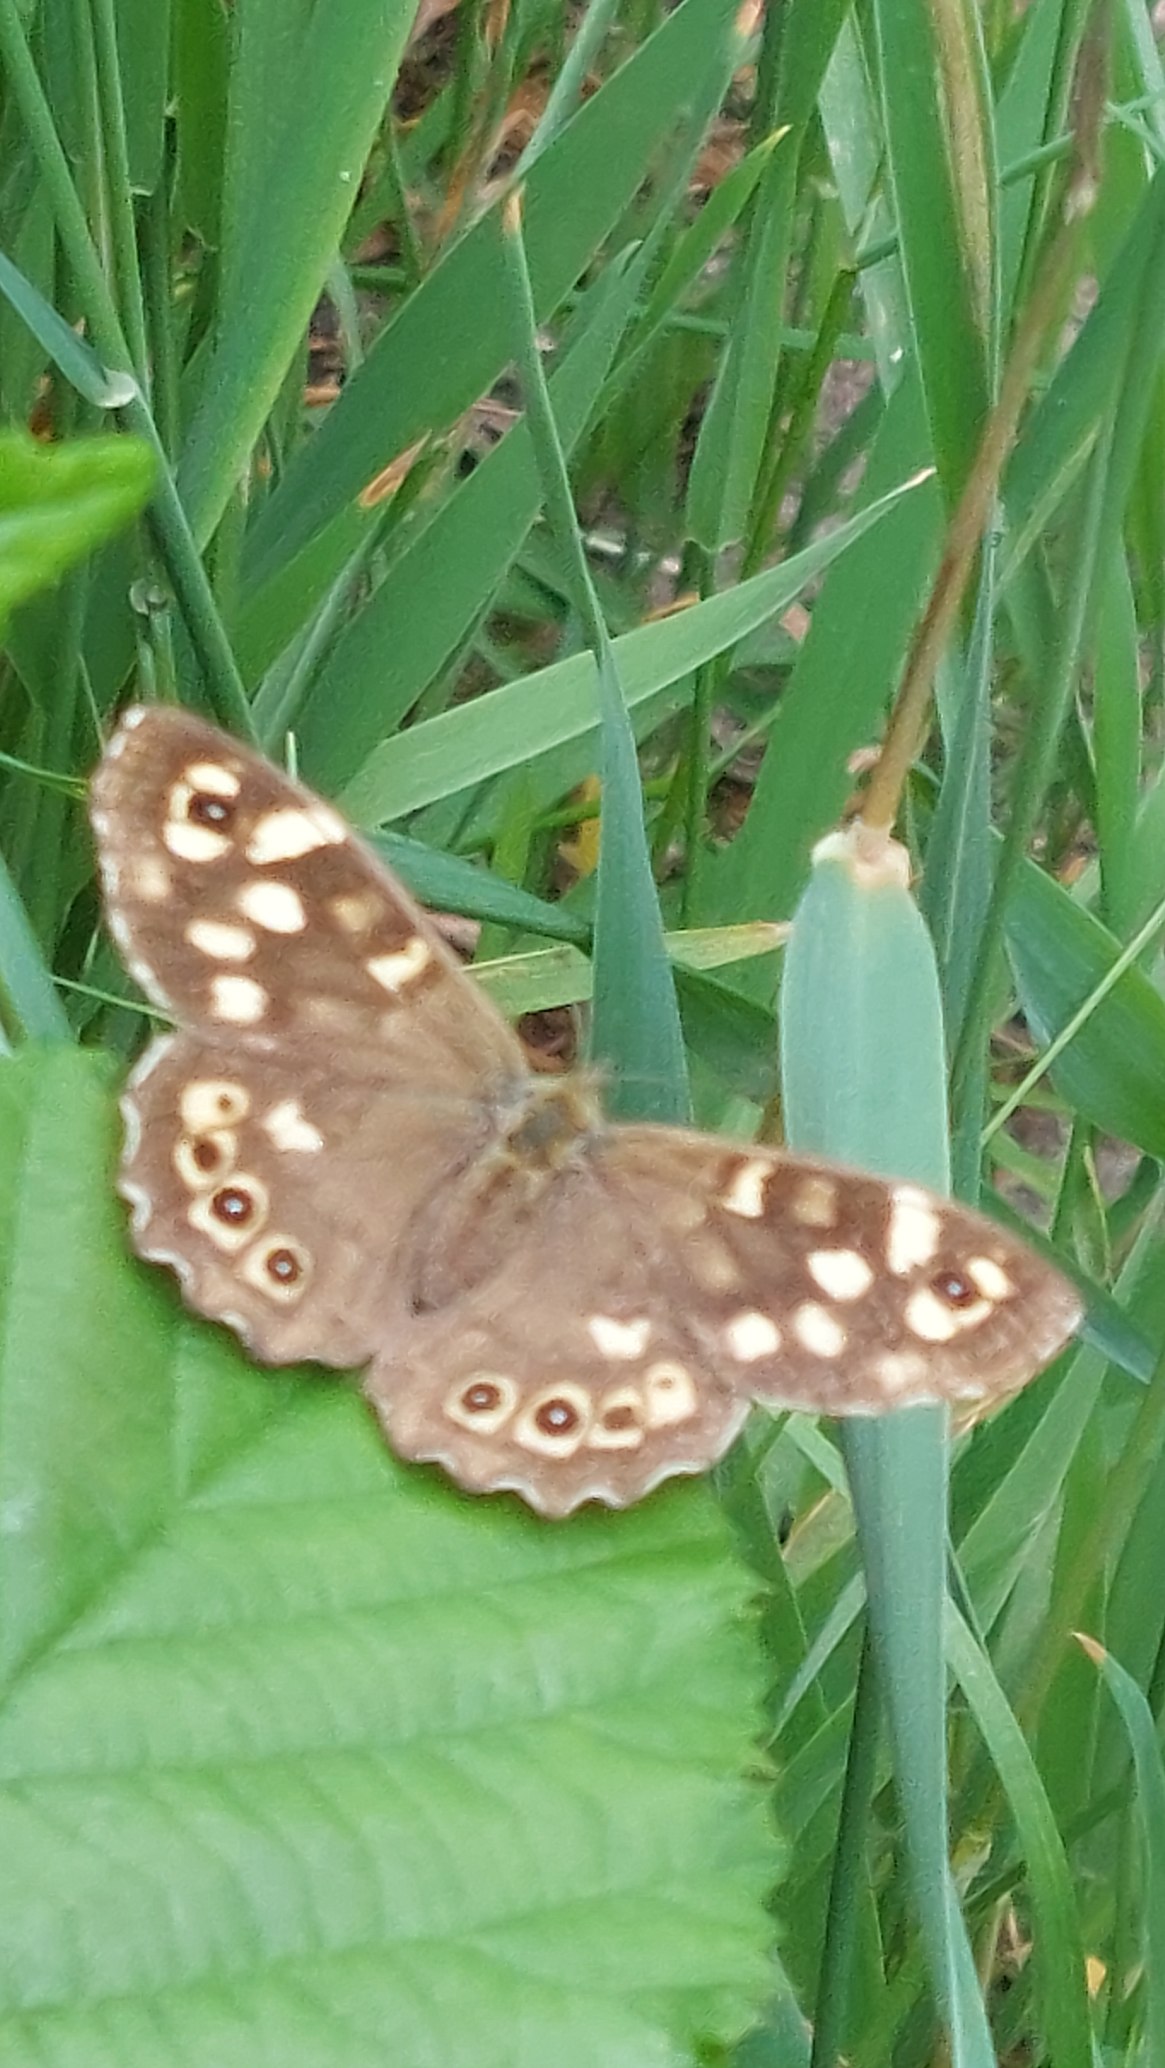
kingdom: Animalia
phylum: Arthropoda
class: Insecta
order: Lepidoptera
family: Nymphalidae
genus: Pararge
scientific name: Pararge aegeria
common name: Skovrandøje
